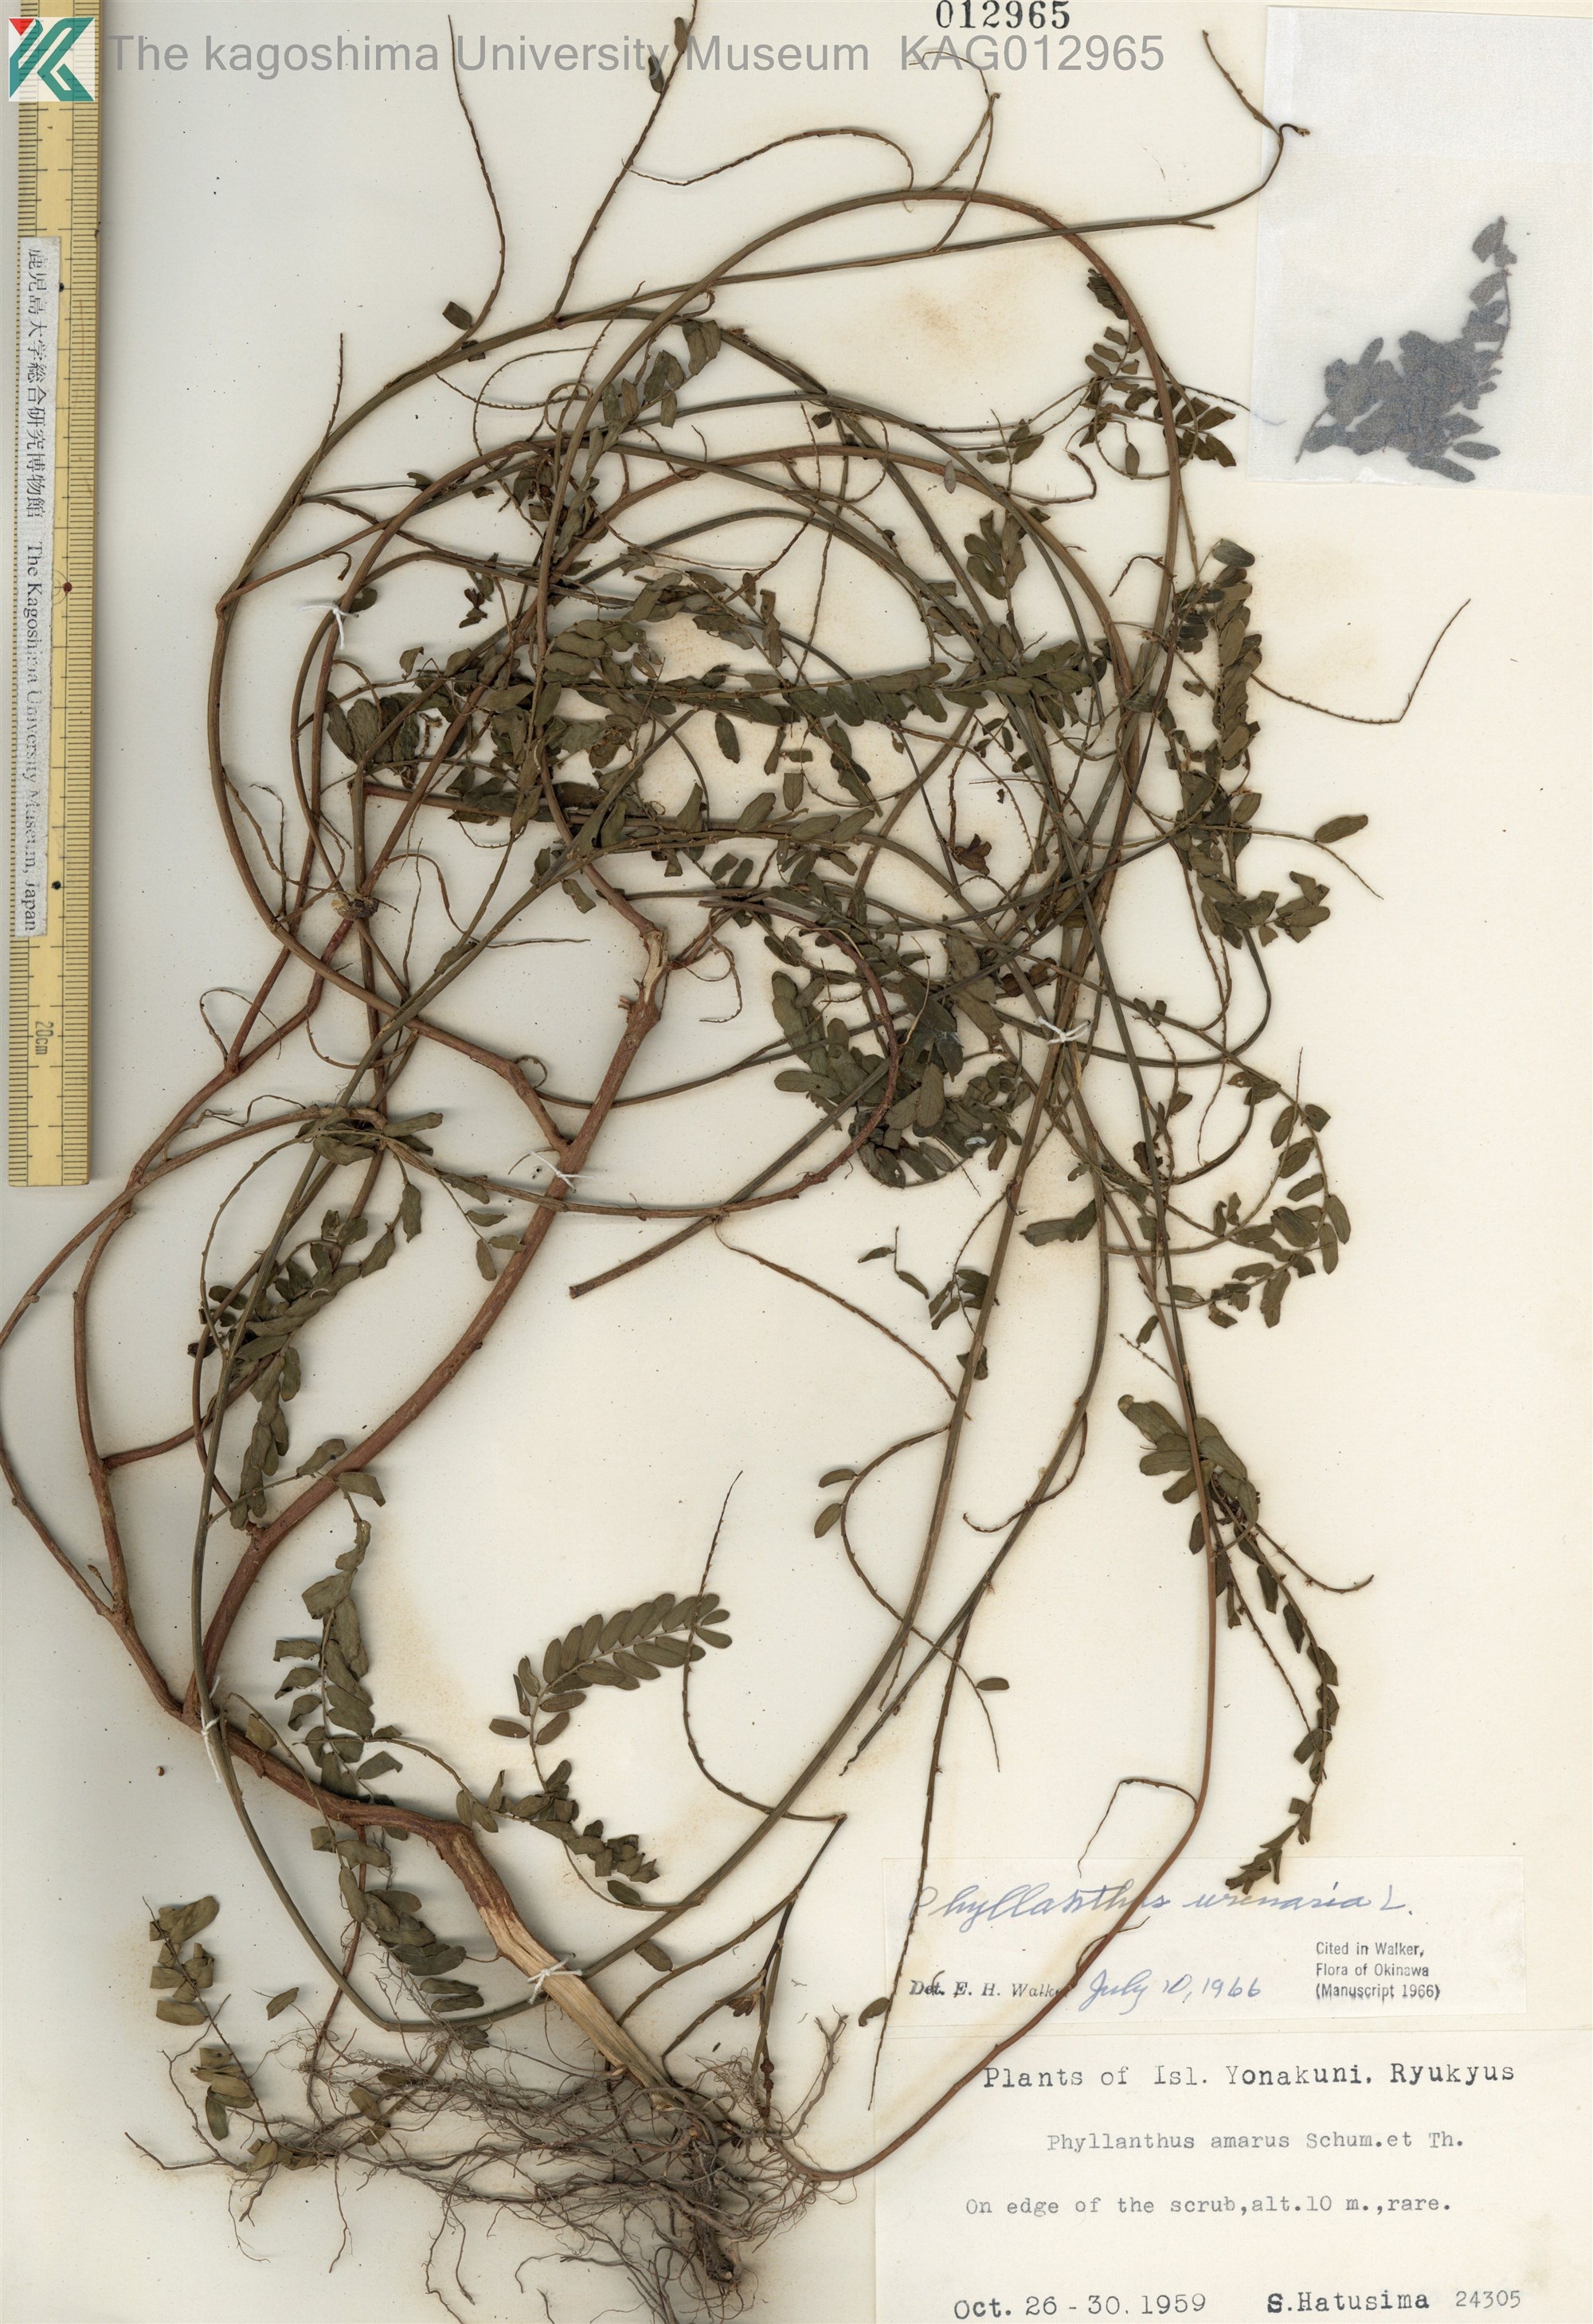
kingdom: Plantae
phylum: Tracheophyta
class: Magnoliopsida
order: Malpighiales
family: Phyllanthaceae
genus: Phyllanthus
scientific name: Phyllanthus urinaria
